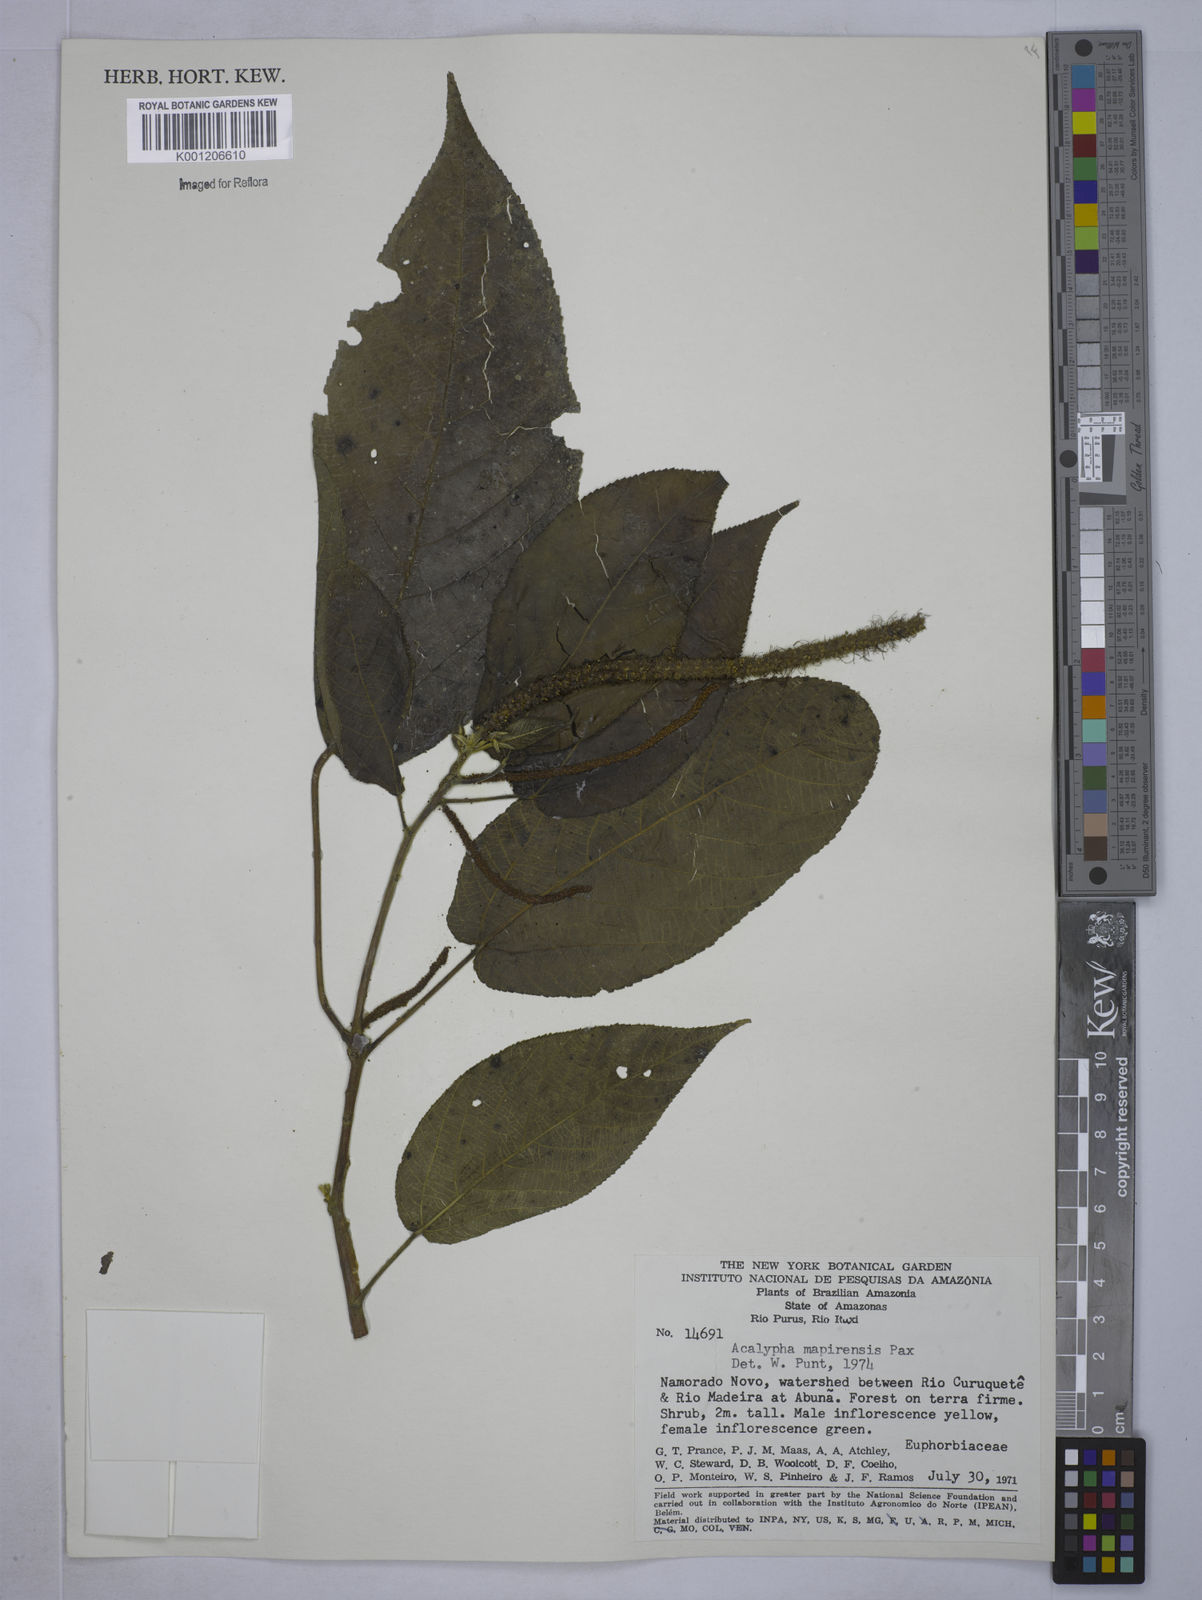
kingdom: Plantae
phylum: Tracheophyta
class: Magnoliopsida
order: Malpighiales
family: Euphorbiaceae
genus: Acalypha
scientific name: Acalypha stricta
